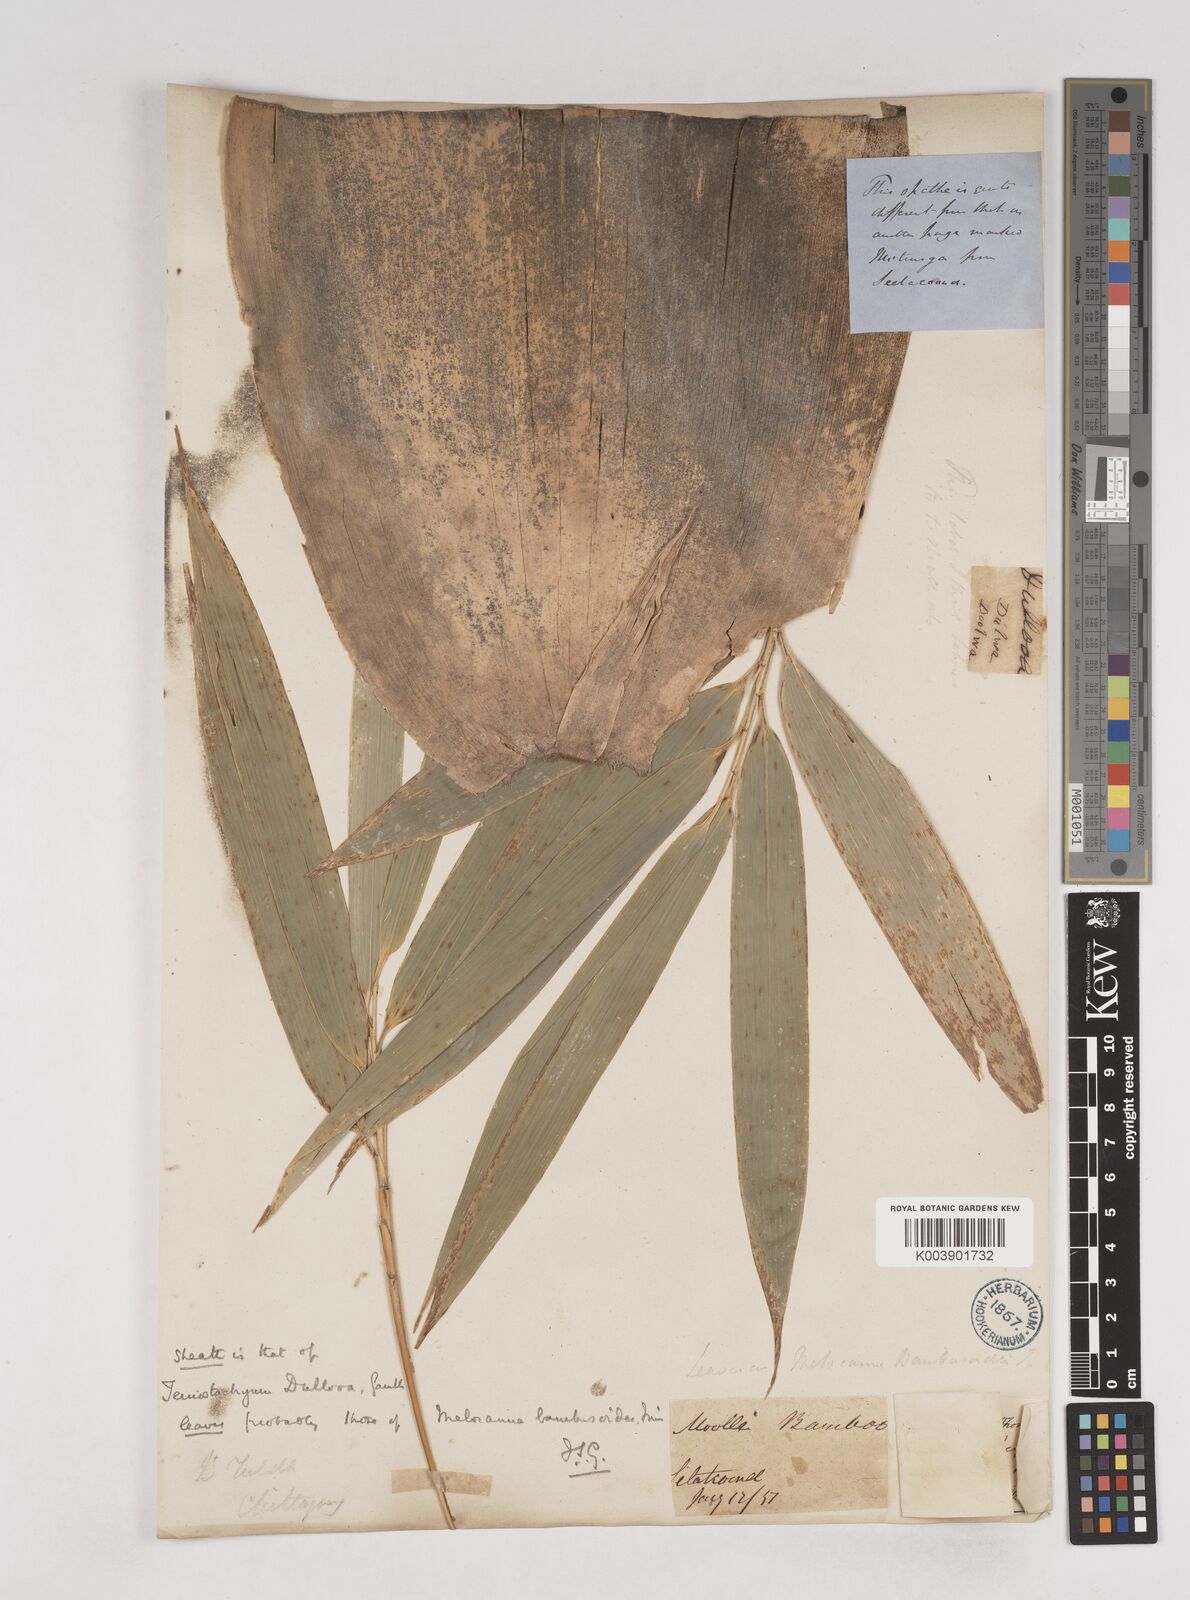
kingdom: Plantae
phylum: Tracheophyta
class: Liliopsida
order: Poales
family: Poaceae
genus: Schizostachyum
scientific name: Schizostachyum dullooa
